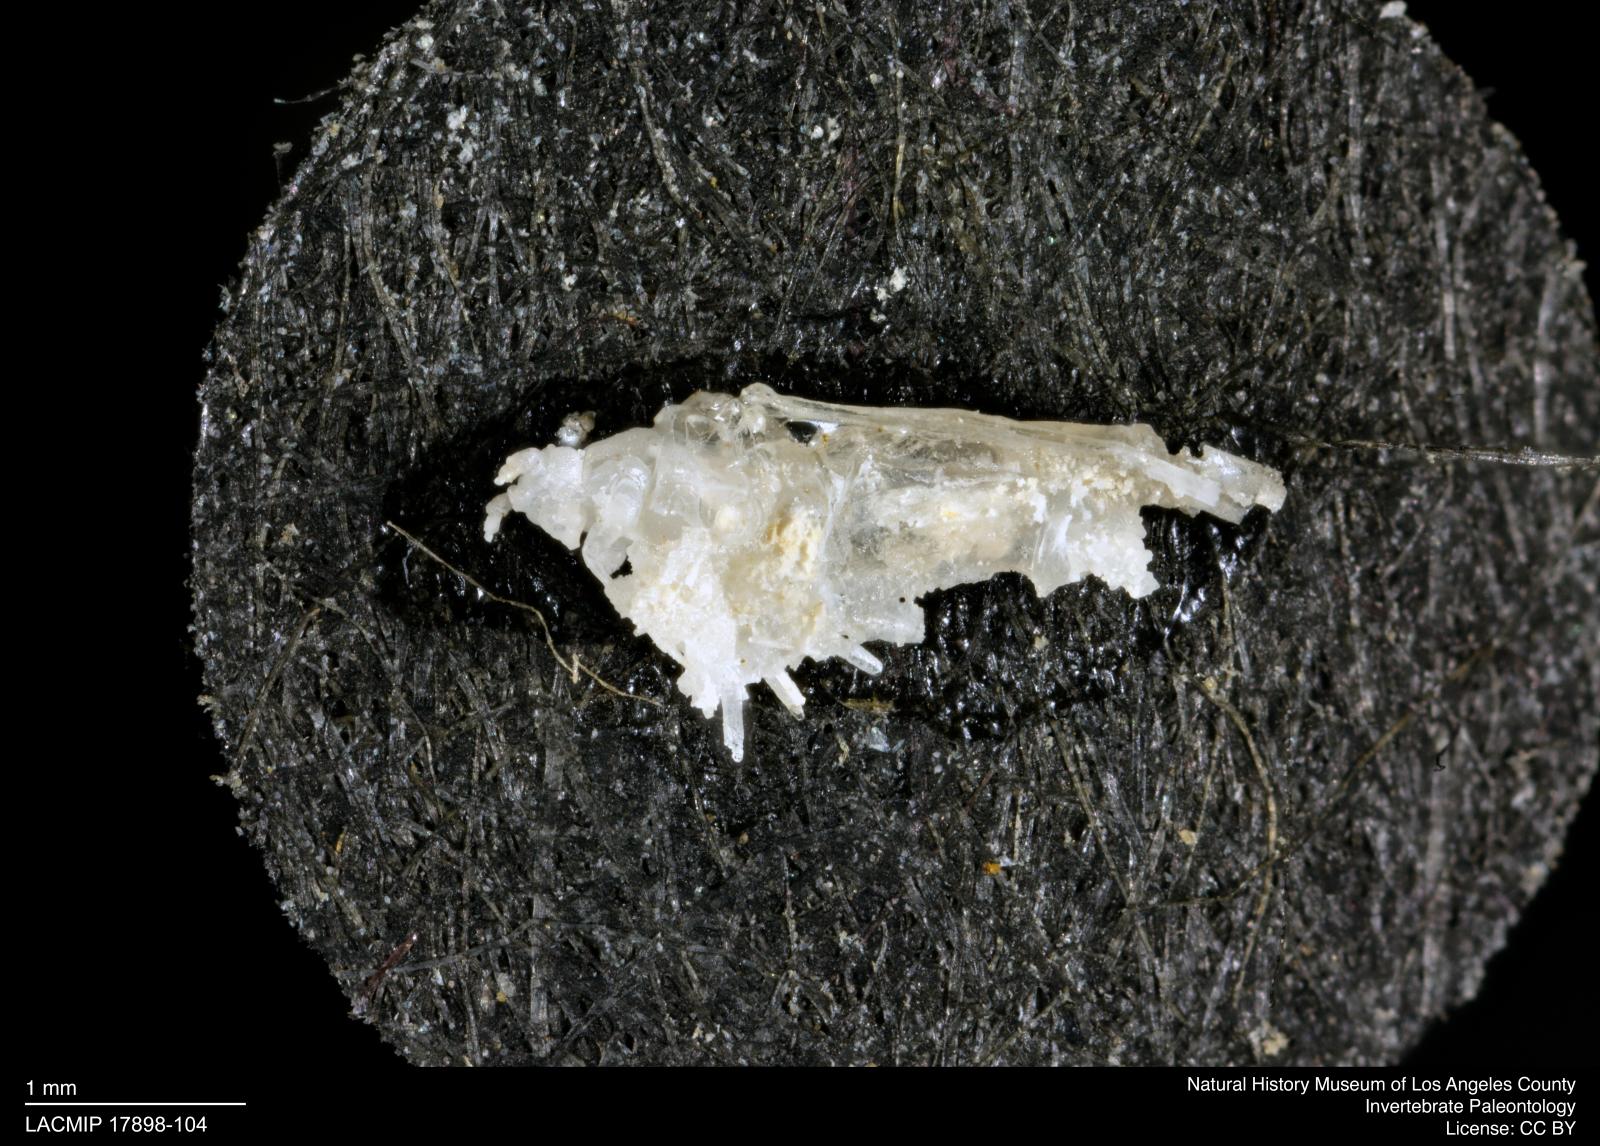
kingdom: Animalia
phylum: Arthropoda
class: Insecta
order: Hemiptera
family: Aphididae
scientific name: Aphididae
